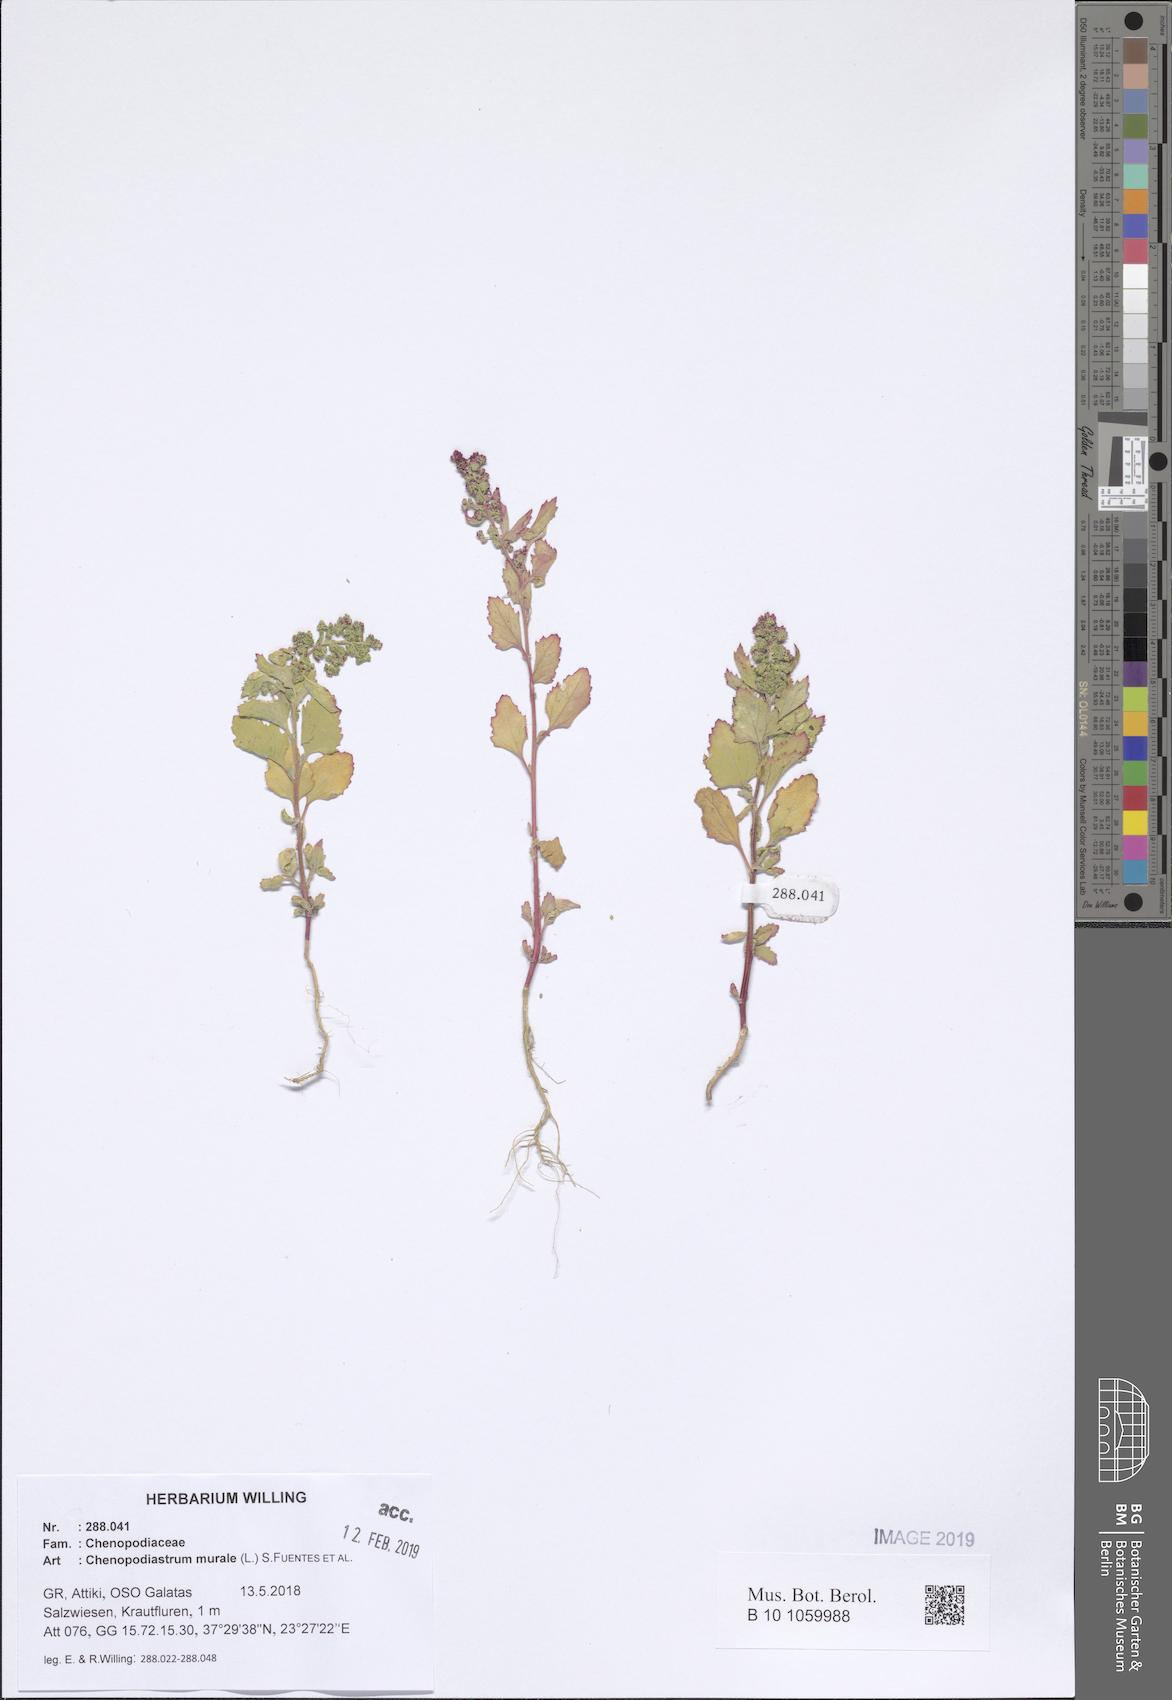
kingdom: Plantae
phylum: Tracheophyta
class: Magnoliopsida
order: Caryophyllales
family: Amaranthaceae
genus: Chenopodiastrum
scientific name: Chenopodiastrum murale
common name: Sowbane
